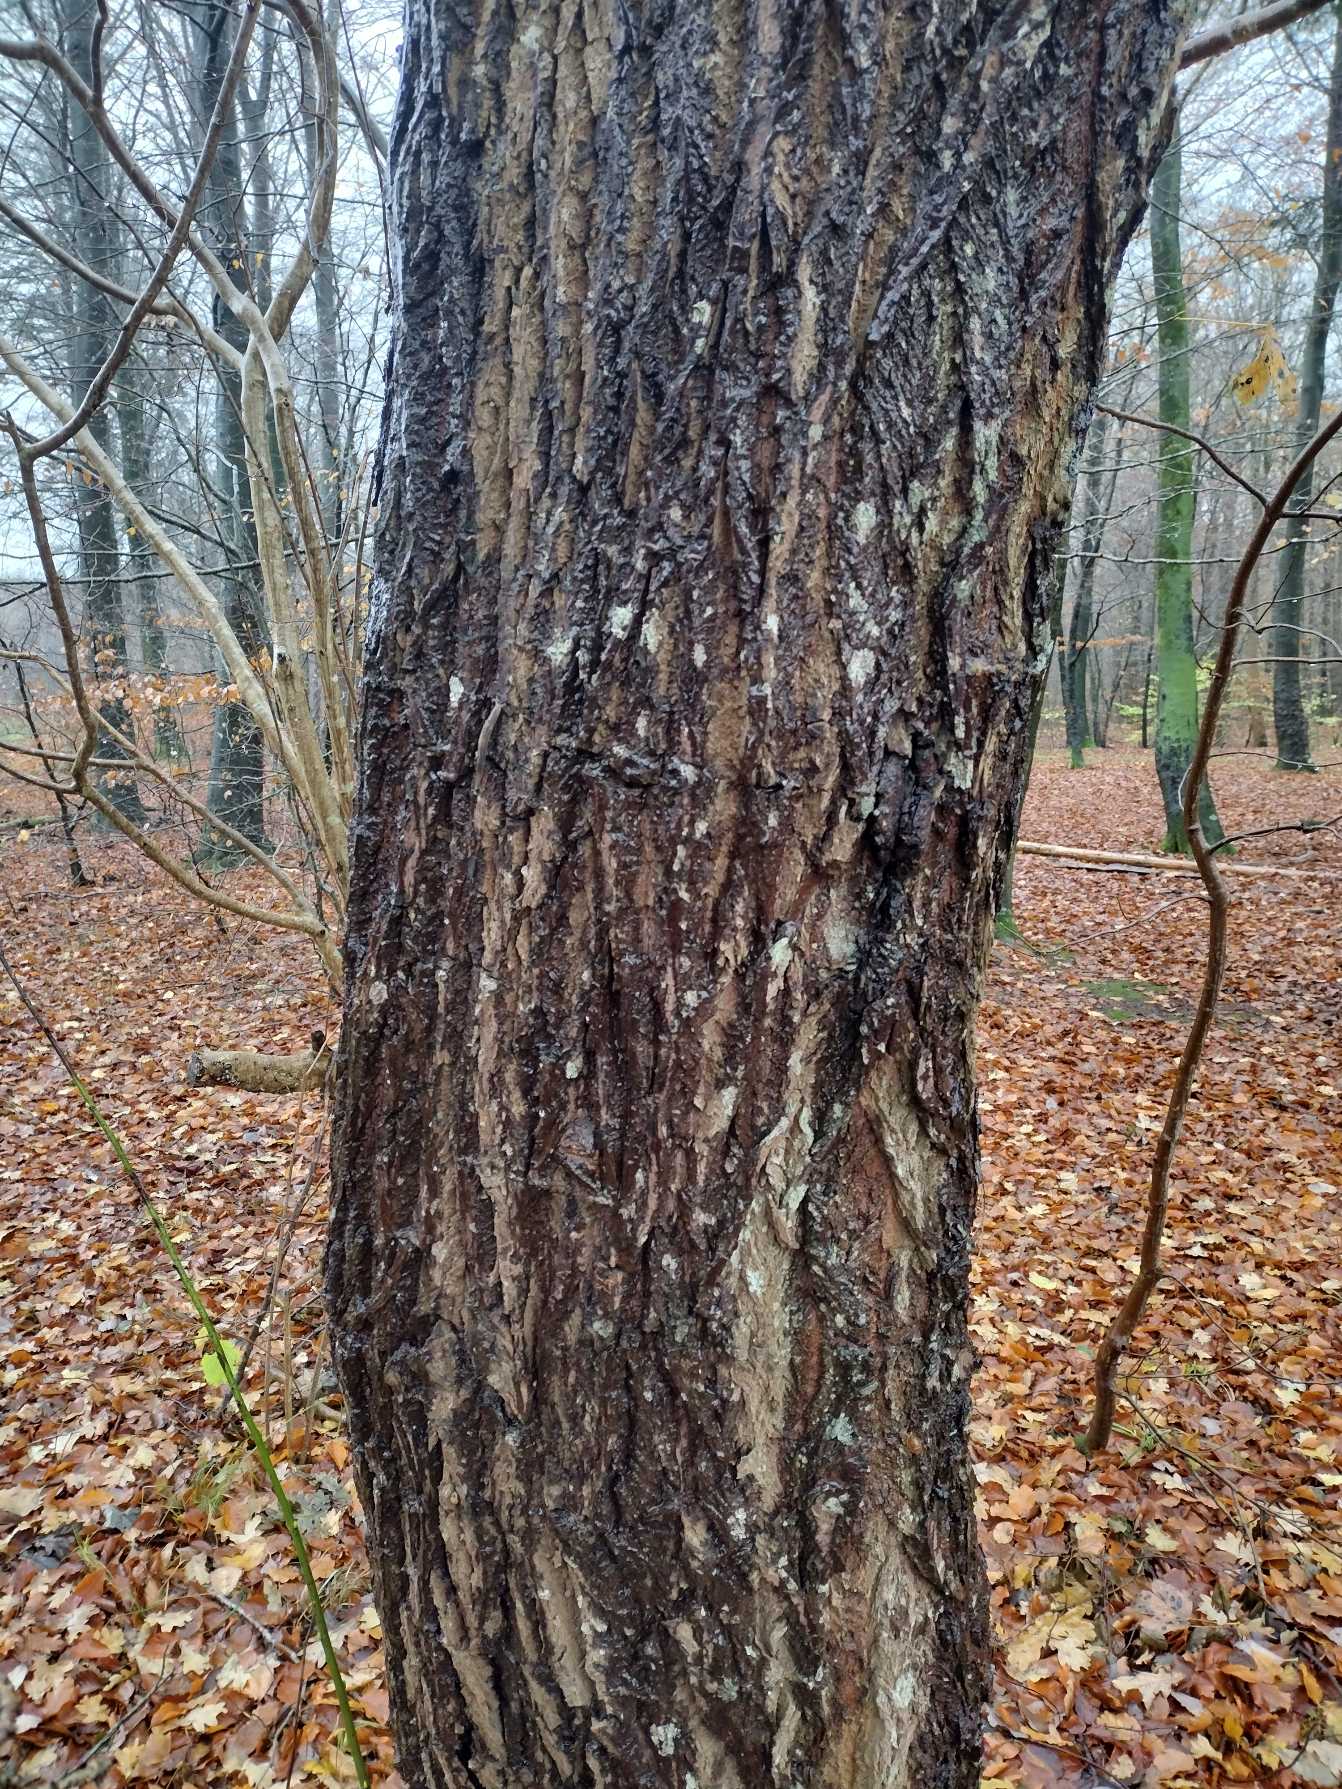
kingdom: Plantae
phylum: Tracheophyta
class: Magnoliopsida
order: Malpighiales
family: Salicaceae
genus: Salix
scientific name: Salix caprea
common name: Selje-pil
